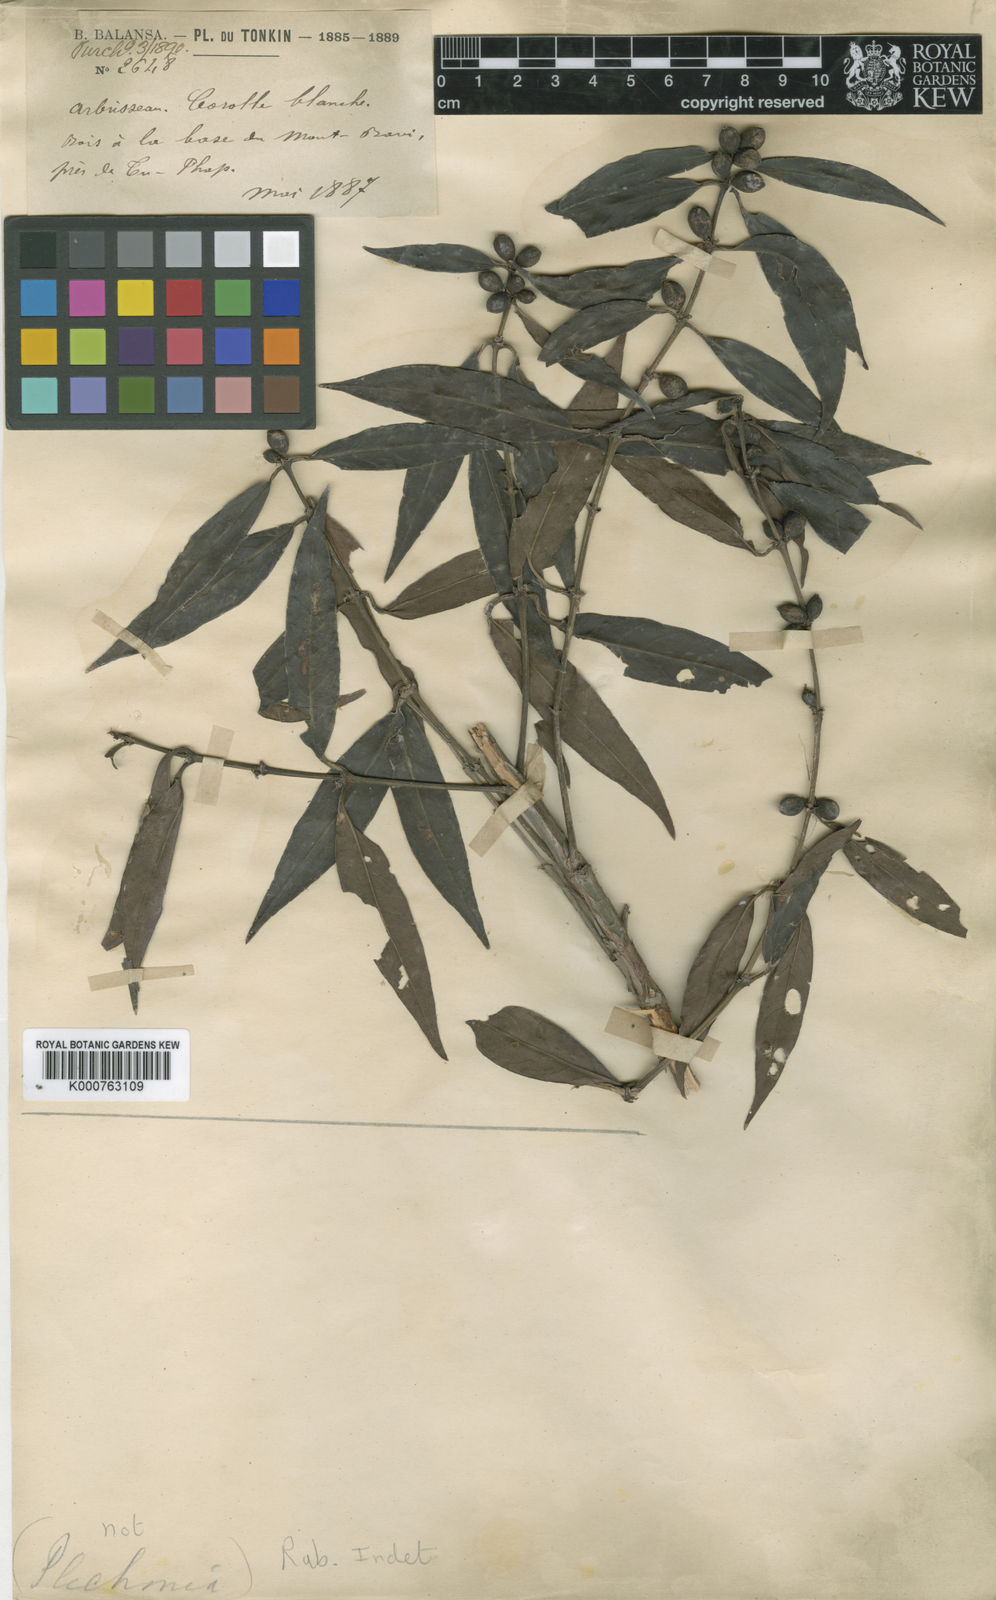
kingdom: Plantae
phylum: Tracheophyta
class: Magnoliopsida
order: Gentianales
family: Rubiaceae
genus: Hyptianthera
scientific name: Hyptianthera
